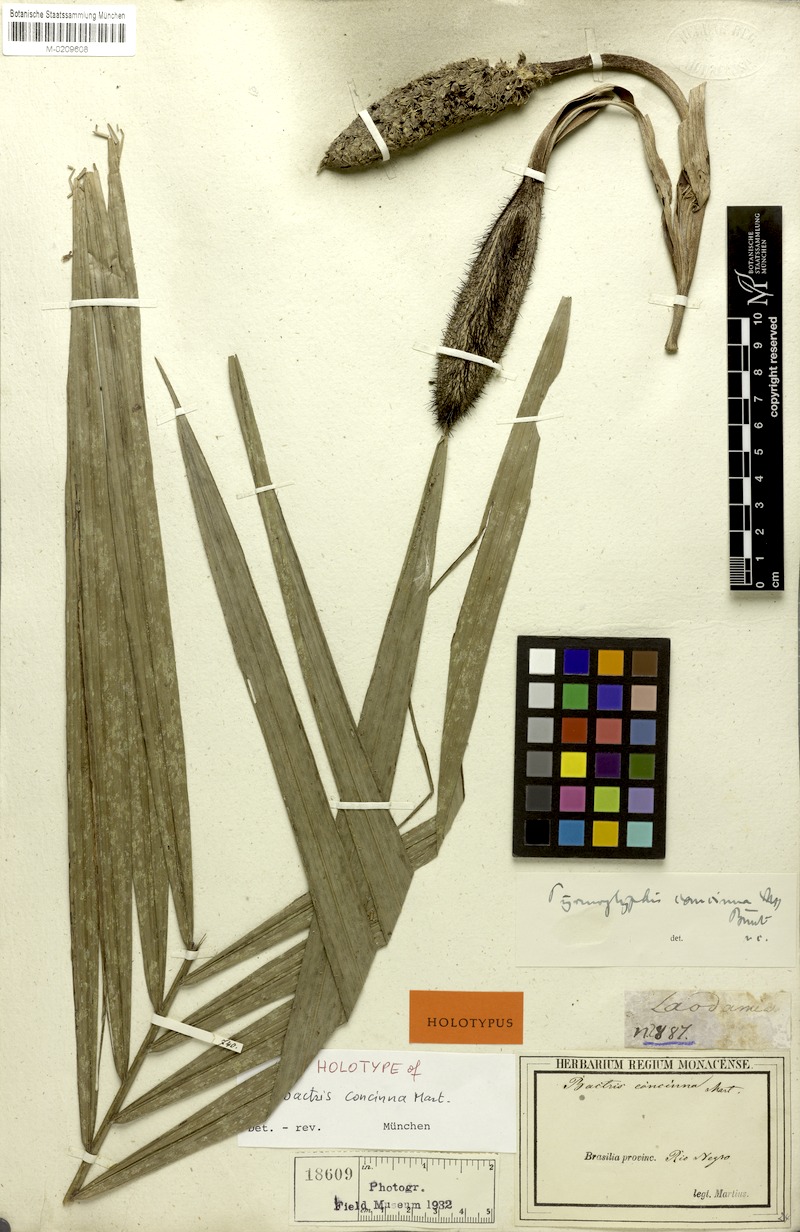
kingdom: Plantae
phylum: Tracheophyta
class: Liliopsida
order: Arecales
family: Arecaceae
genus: Bactris
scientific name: Bactris concinna
